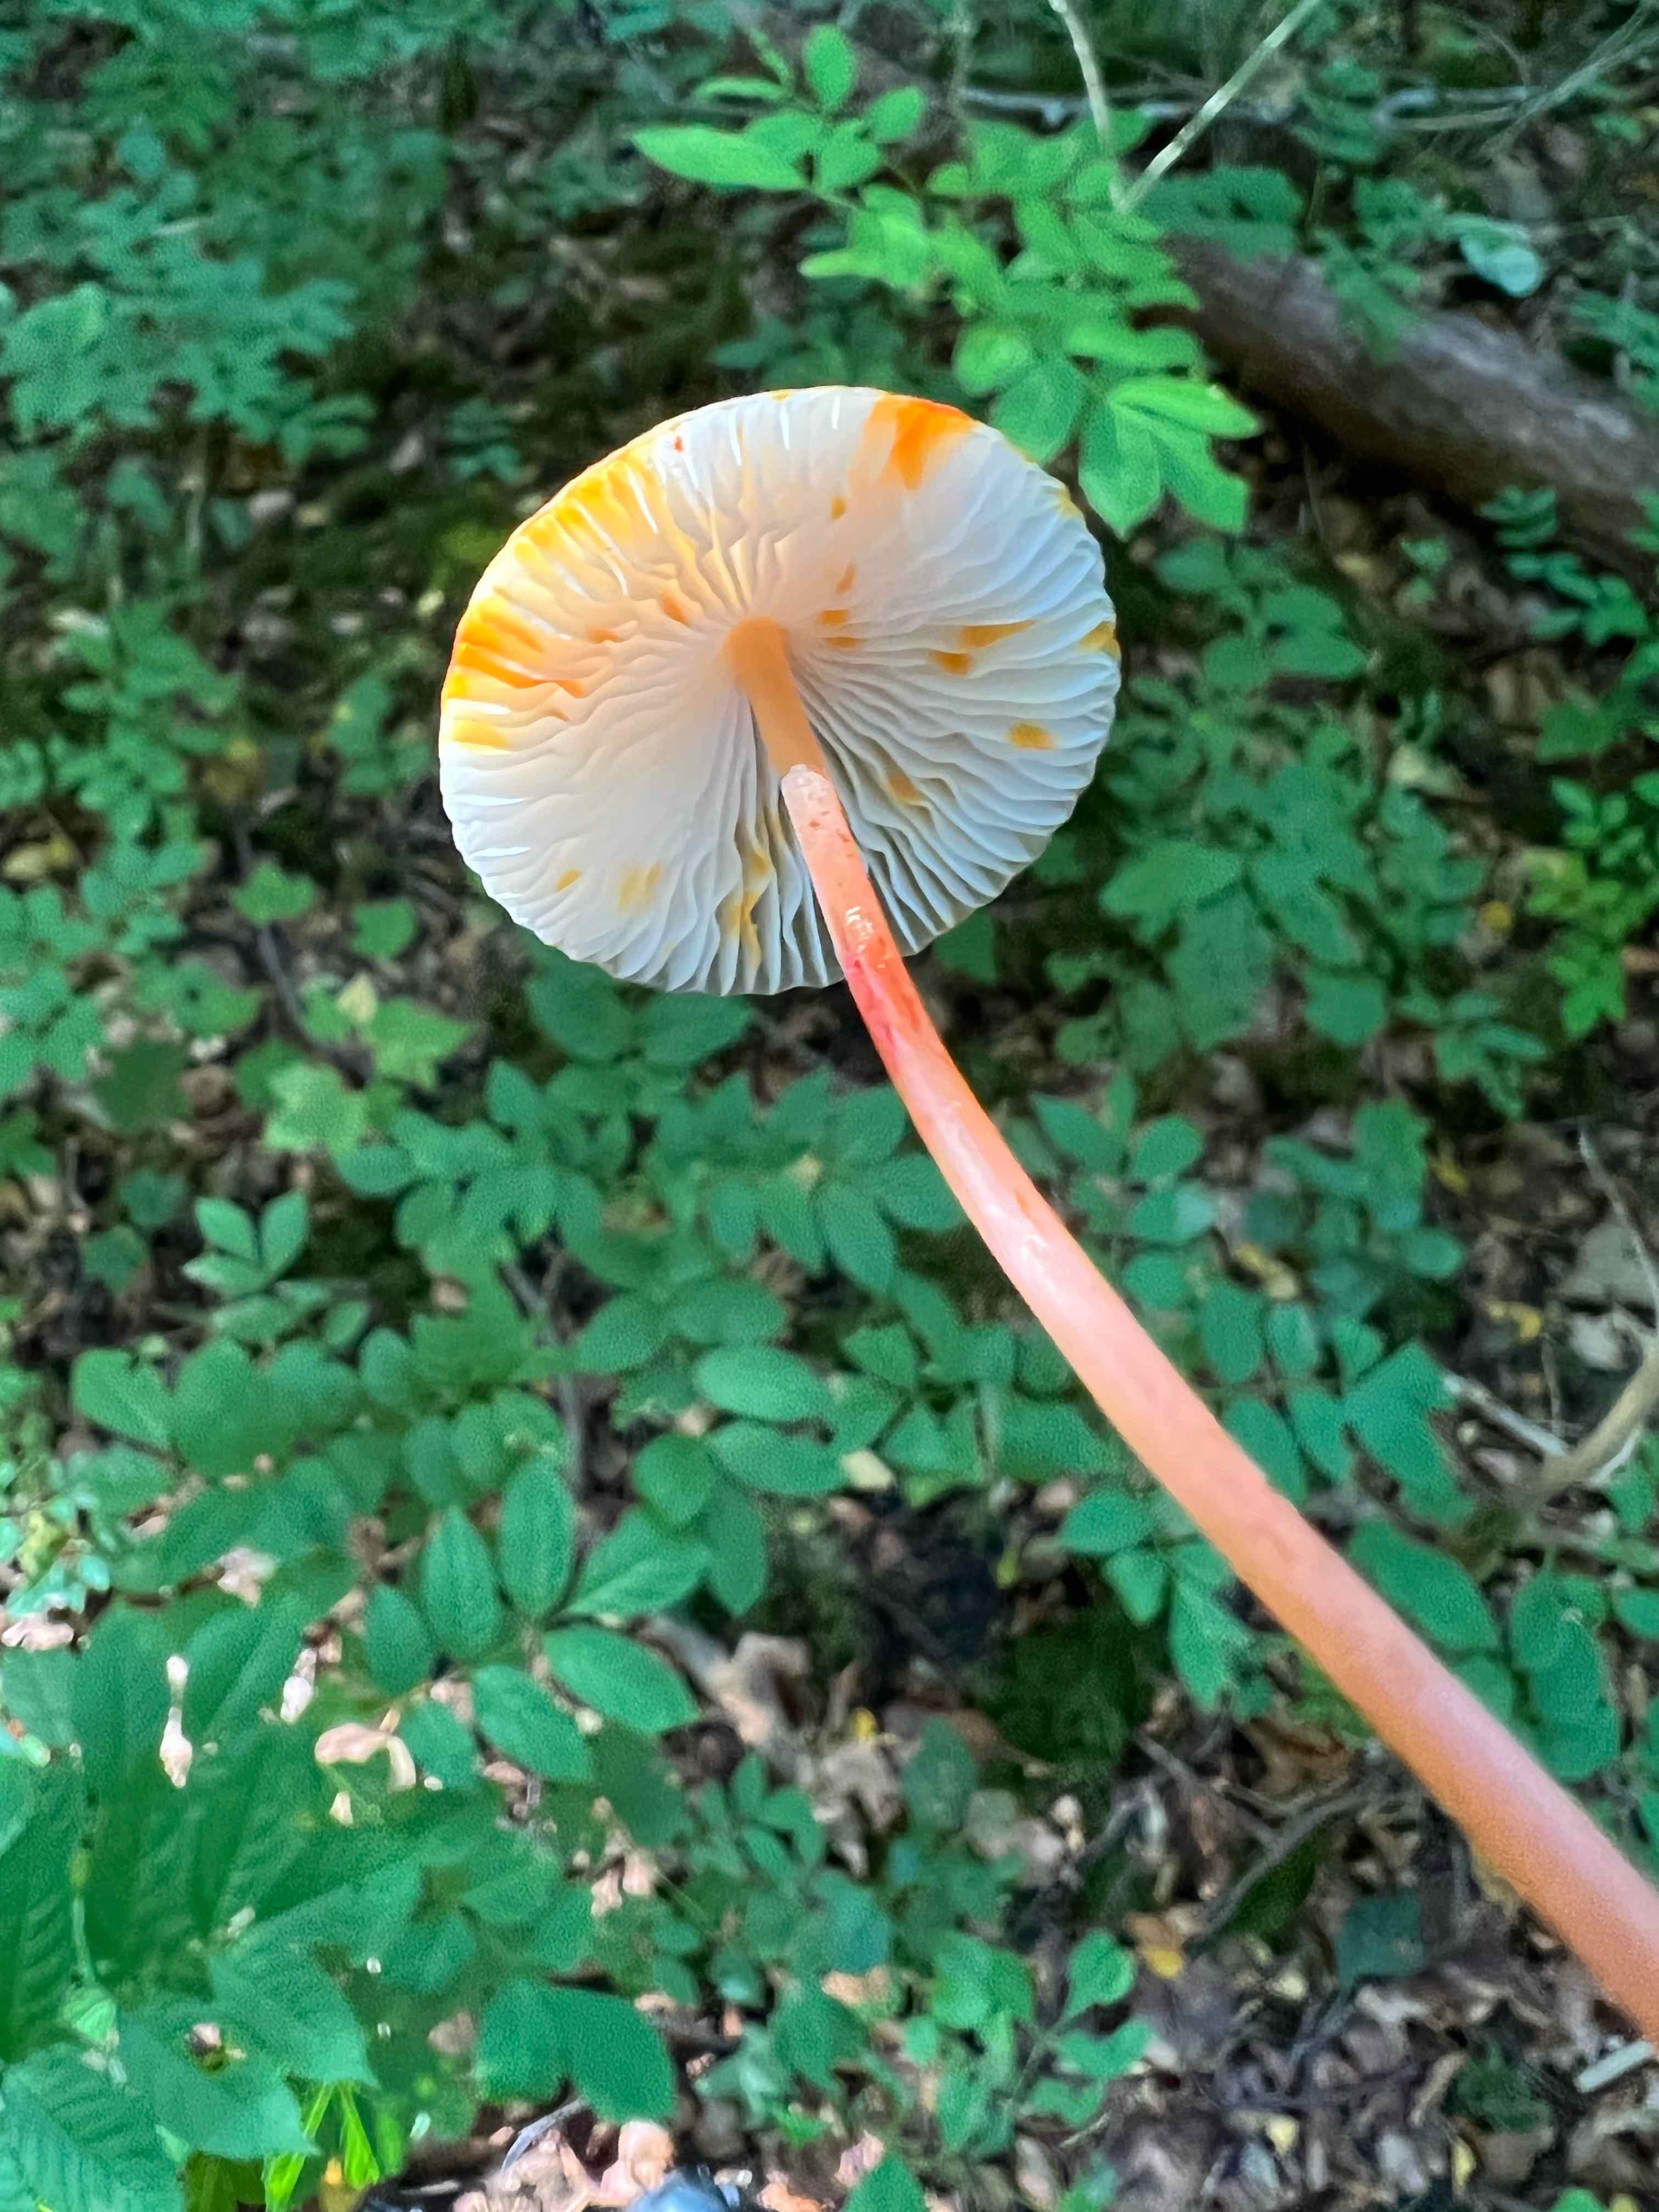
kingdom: Fungi
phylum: Basidiomycota
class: Agaricomycetes
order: Agaricales
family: Mycenaceae
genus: Mycena
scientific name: Mycena crocata
